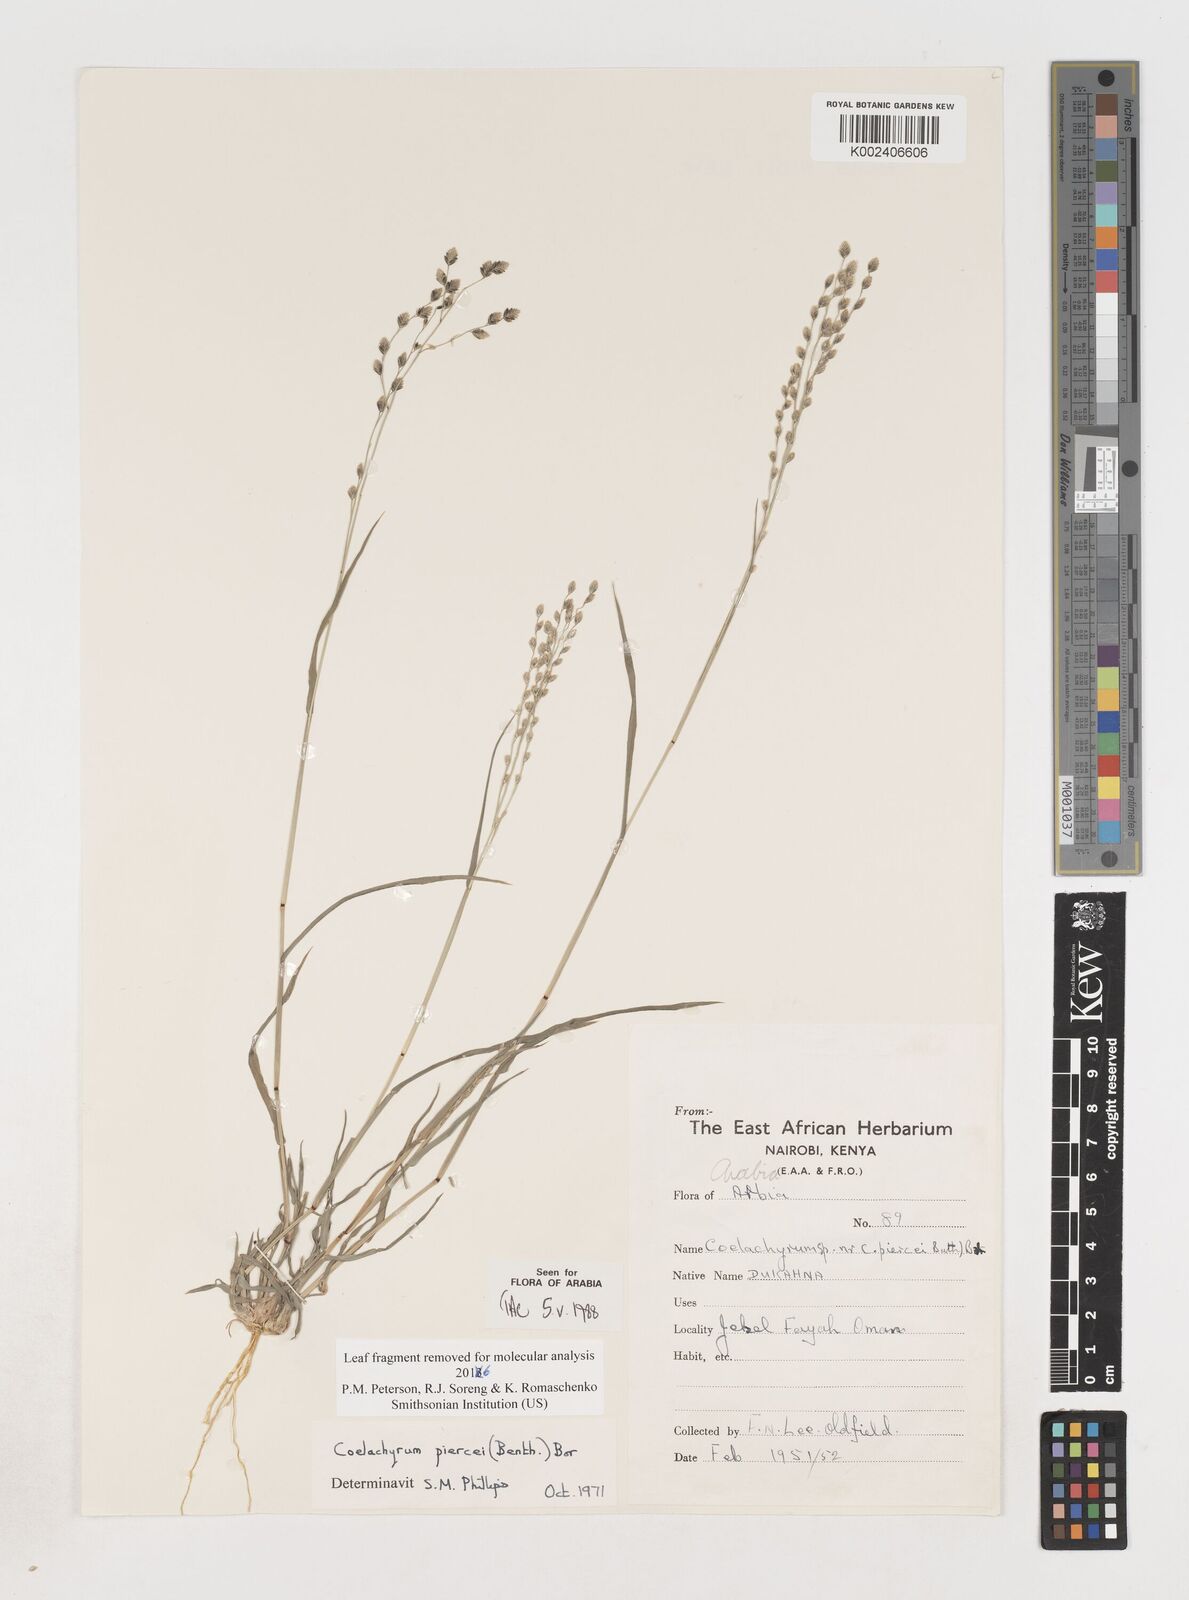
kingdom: Plantae
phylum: Tracheophyta
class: Liliopsida
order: Poales
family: Poaceae
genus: Coelachyrum
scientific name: Coelachyrum piercei
